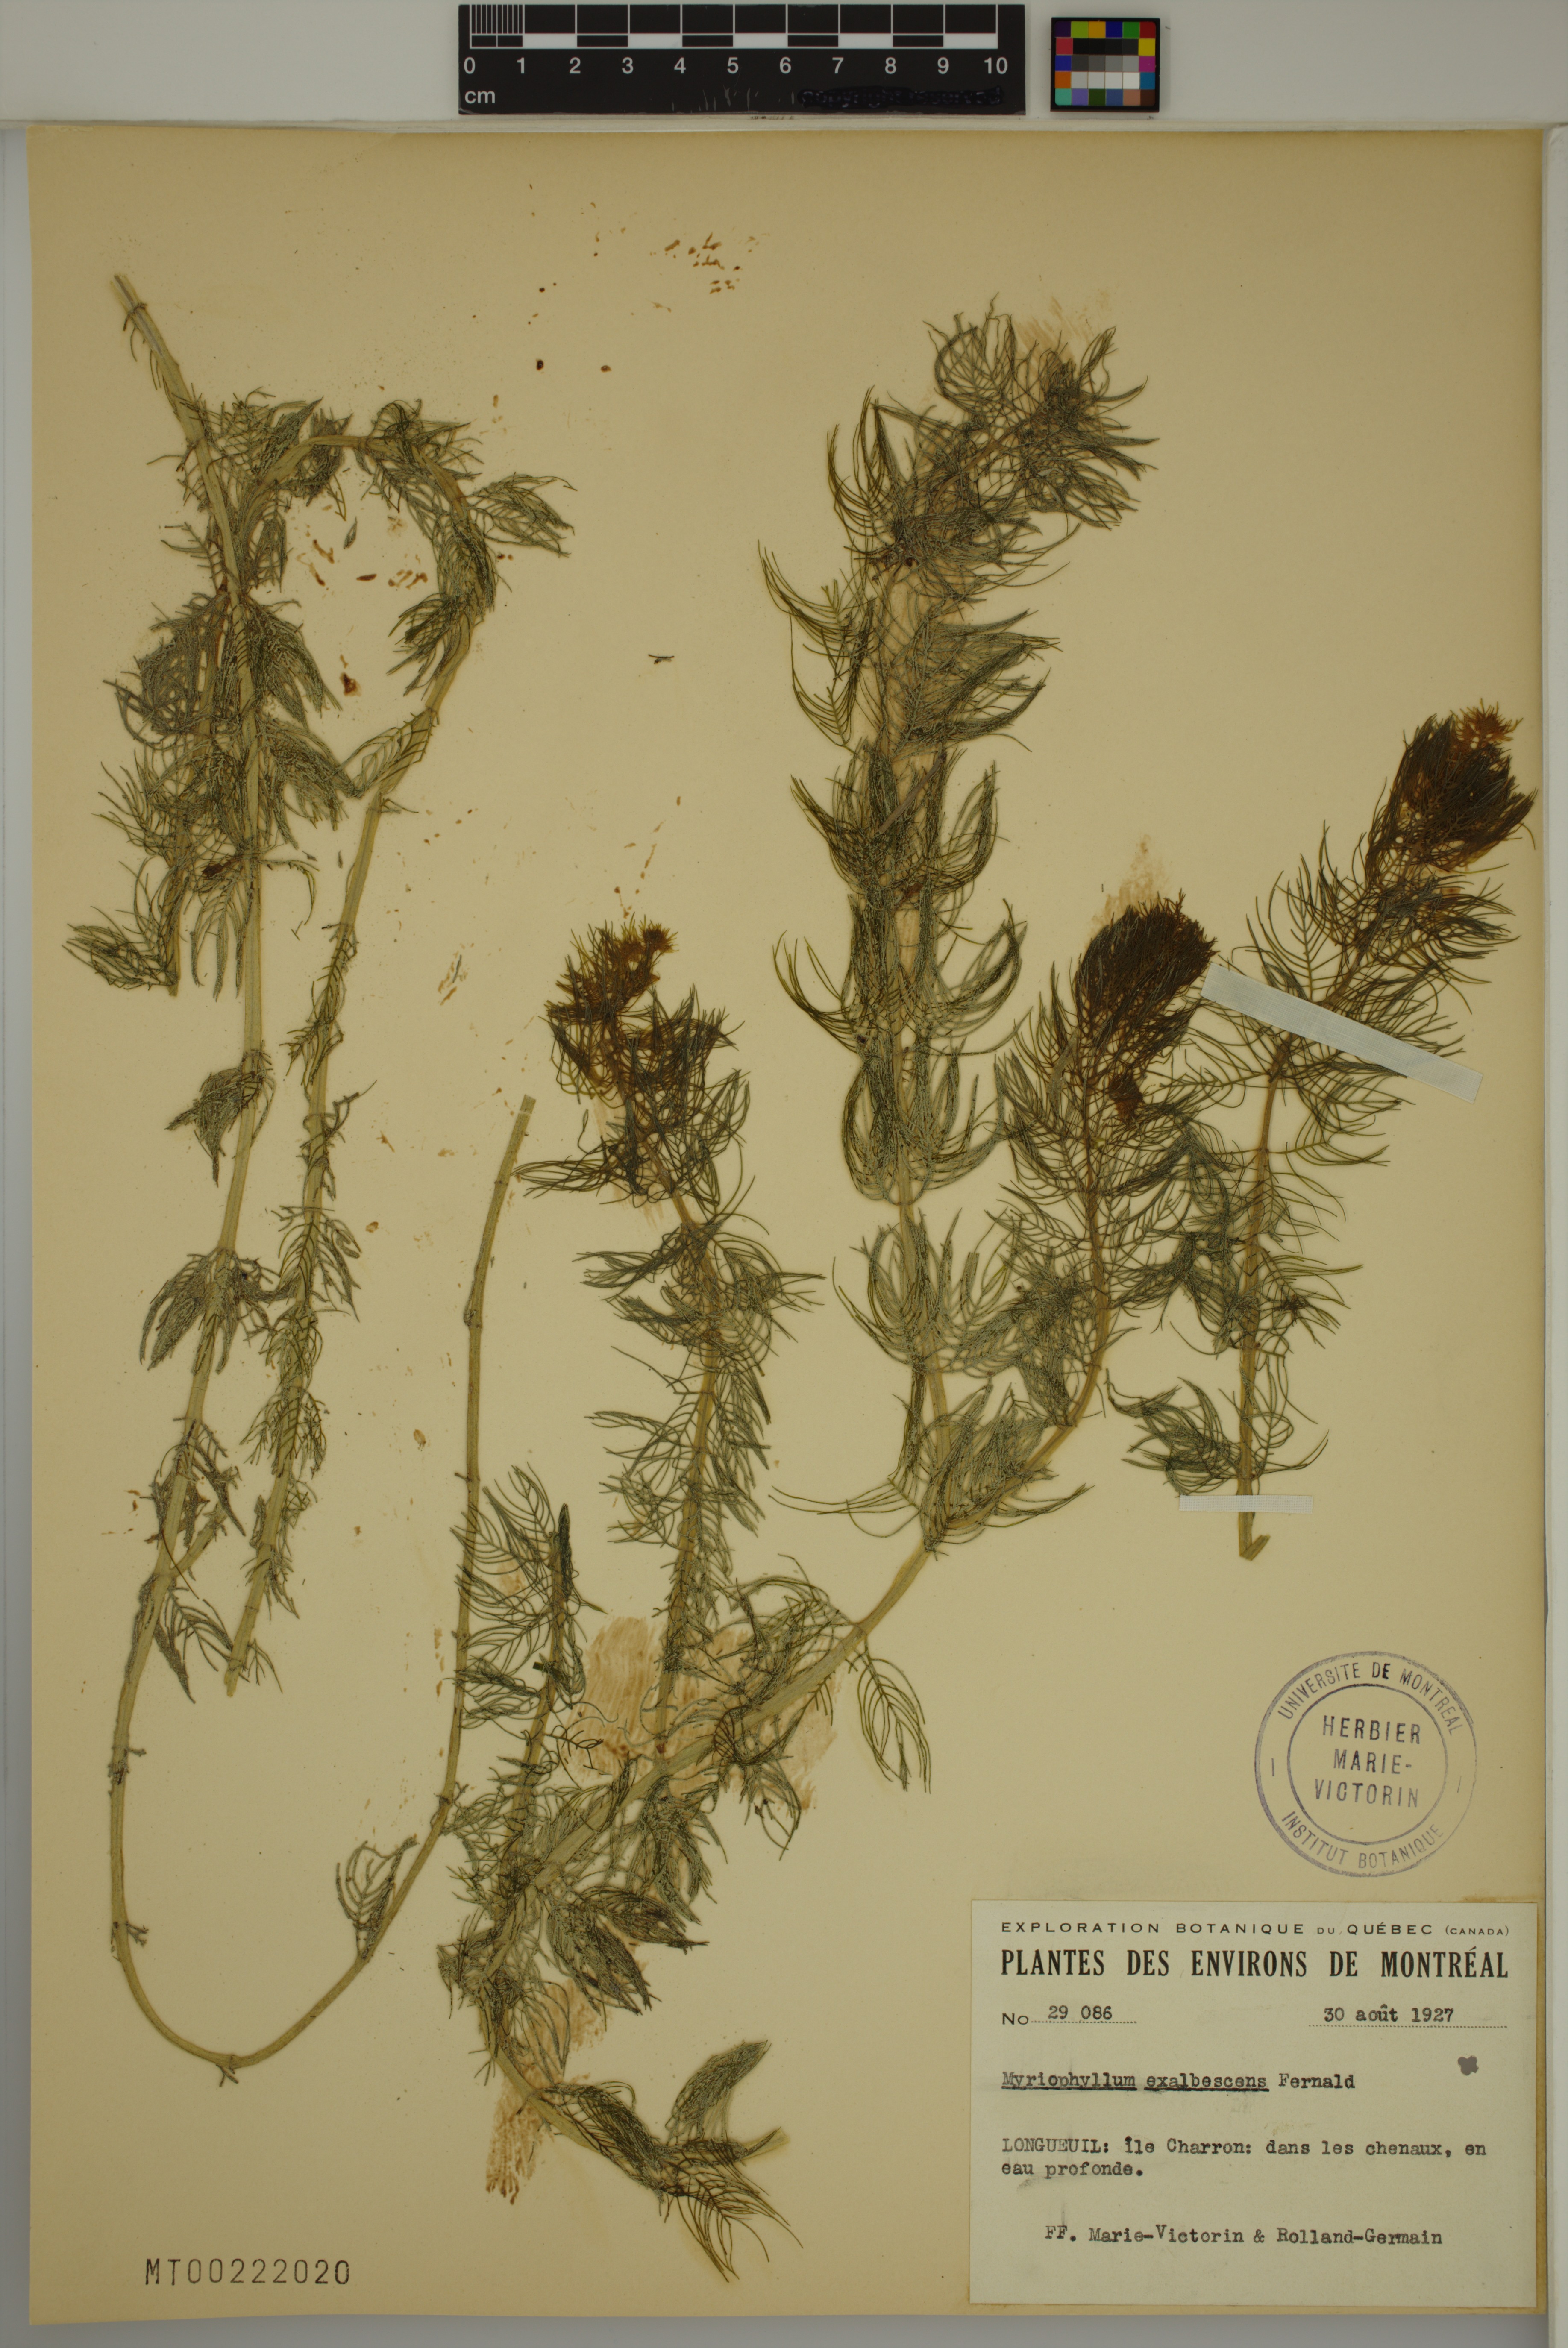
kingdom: Plantae
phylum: Tracheophyta
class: Magnoliopsida
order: Saxifragales
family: Haloragaceae
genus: Myriophyllum
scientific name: Myriophyllum sibiricum
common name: Siberian water-milfoil
